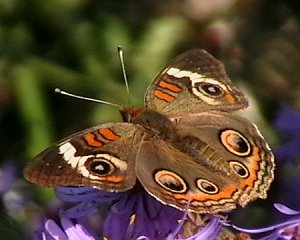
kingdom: Animalia
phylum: Arthropoda
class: Insecta
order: Lepidoptera
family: Nymphalidae
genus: Junonia
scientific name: Junonia coenia
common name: Common Buckeye
